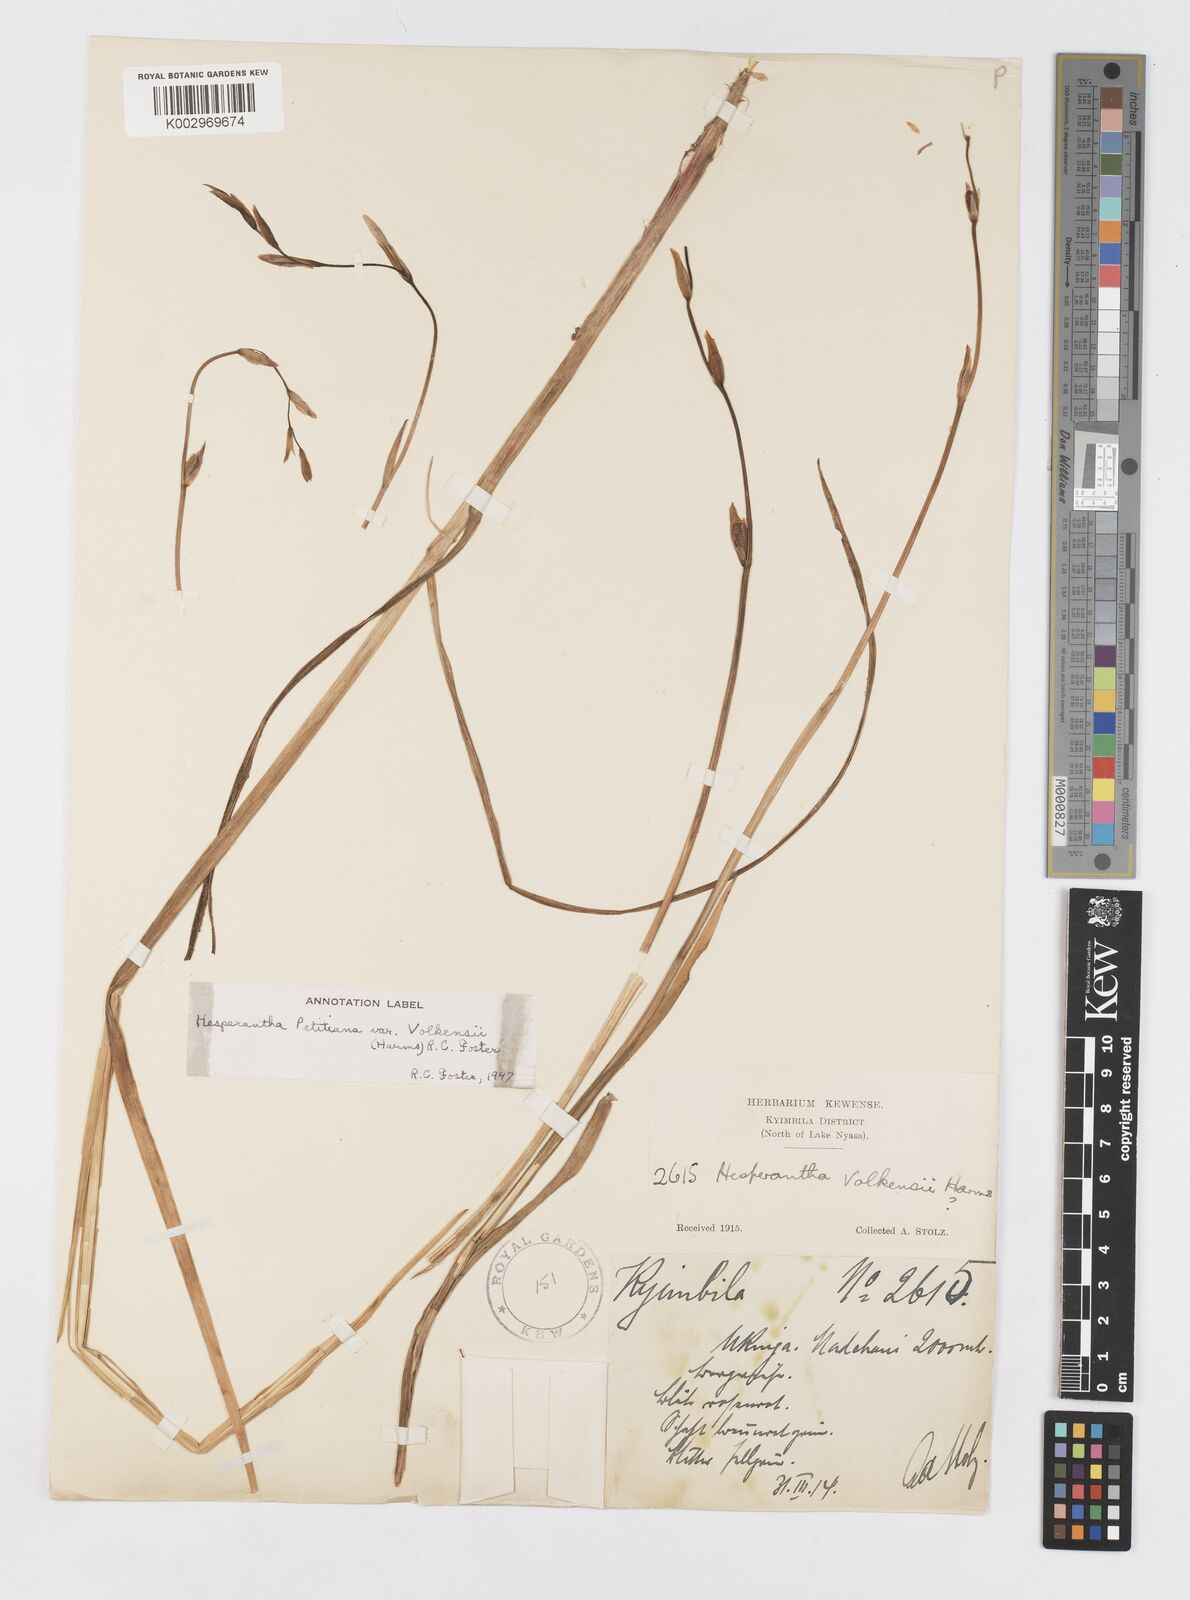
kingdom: Plantae
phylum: Tracheophyta
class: Liliopsida
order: Asparagales
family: Iridaceae
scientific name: Iridaceae
